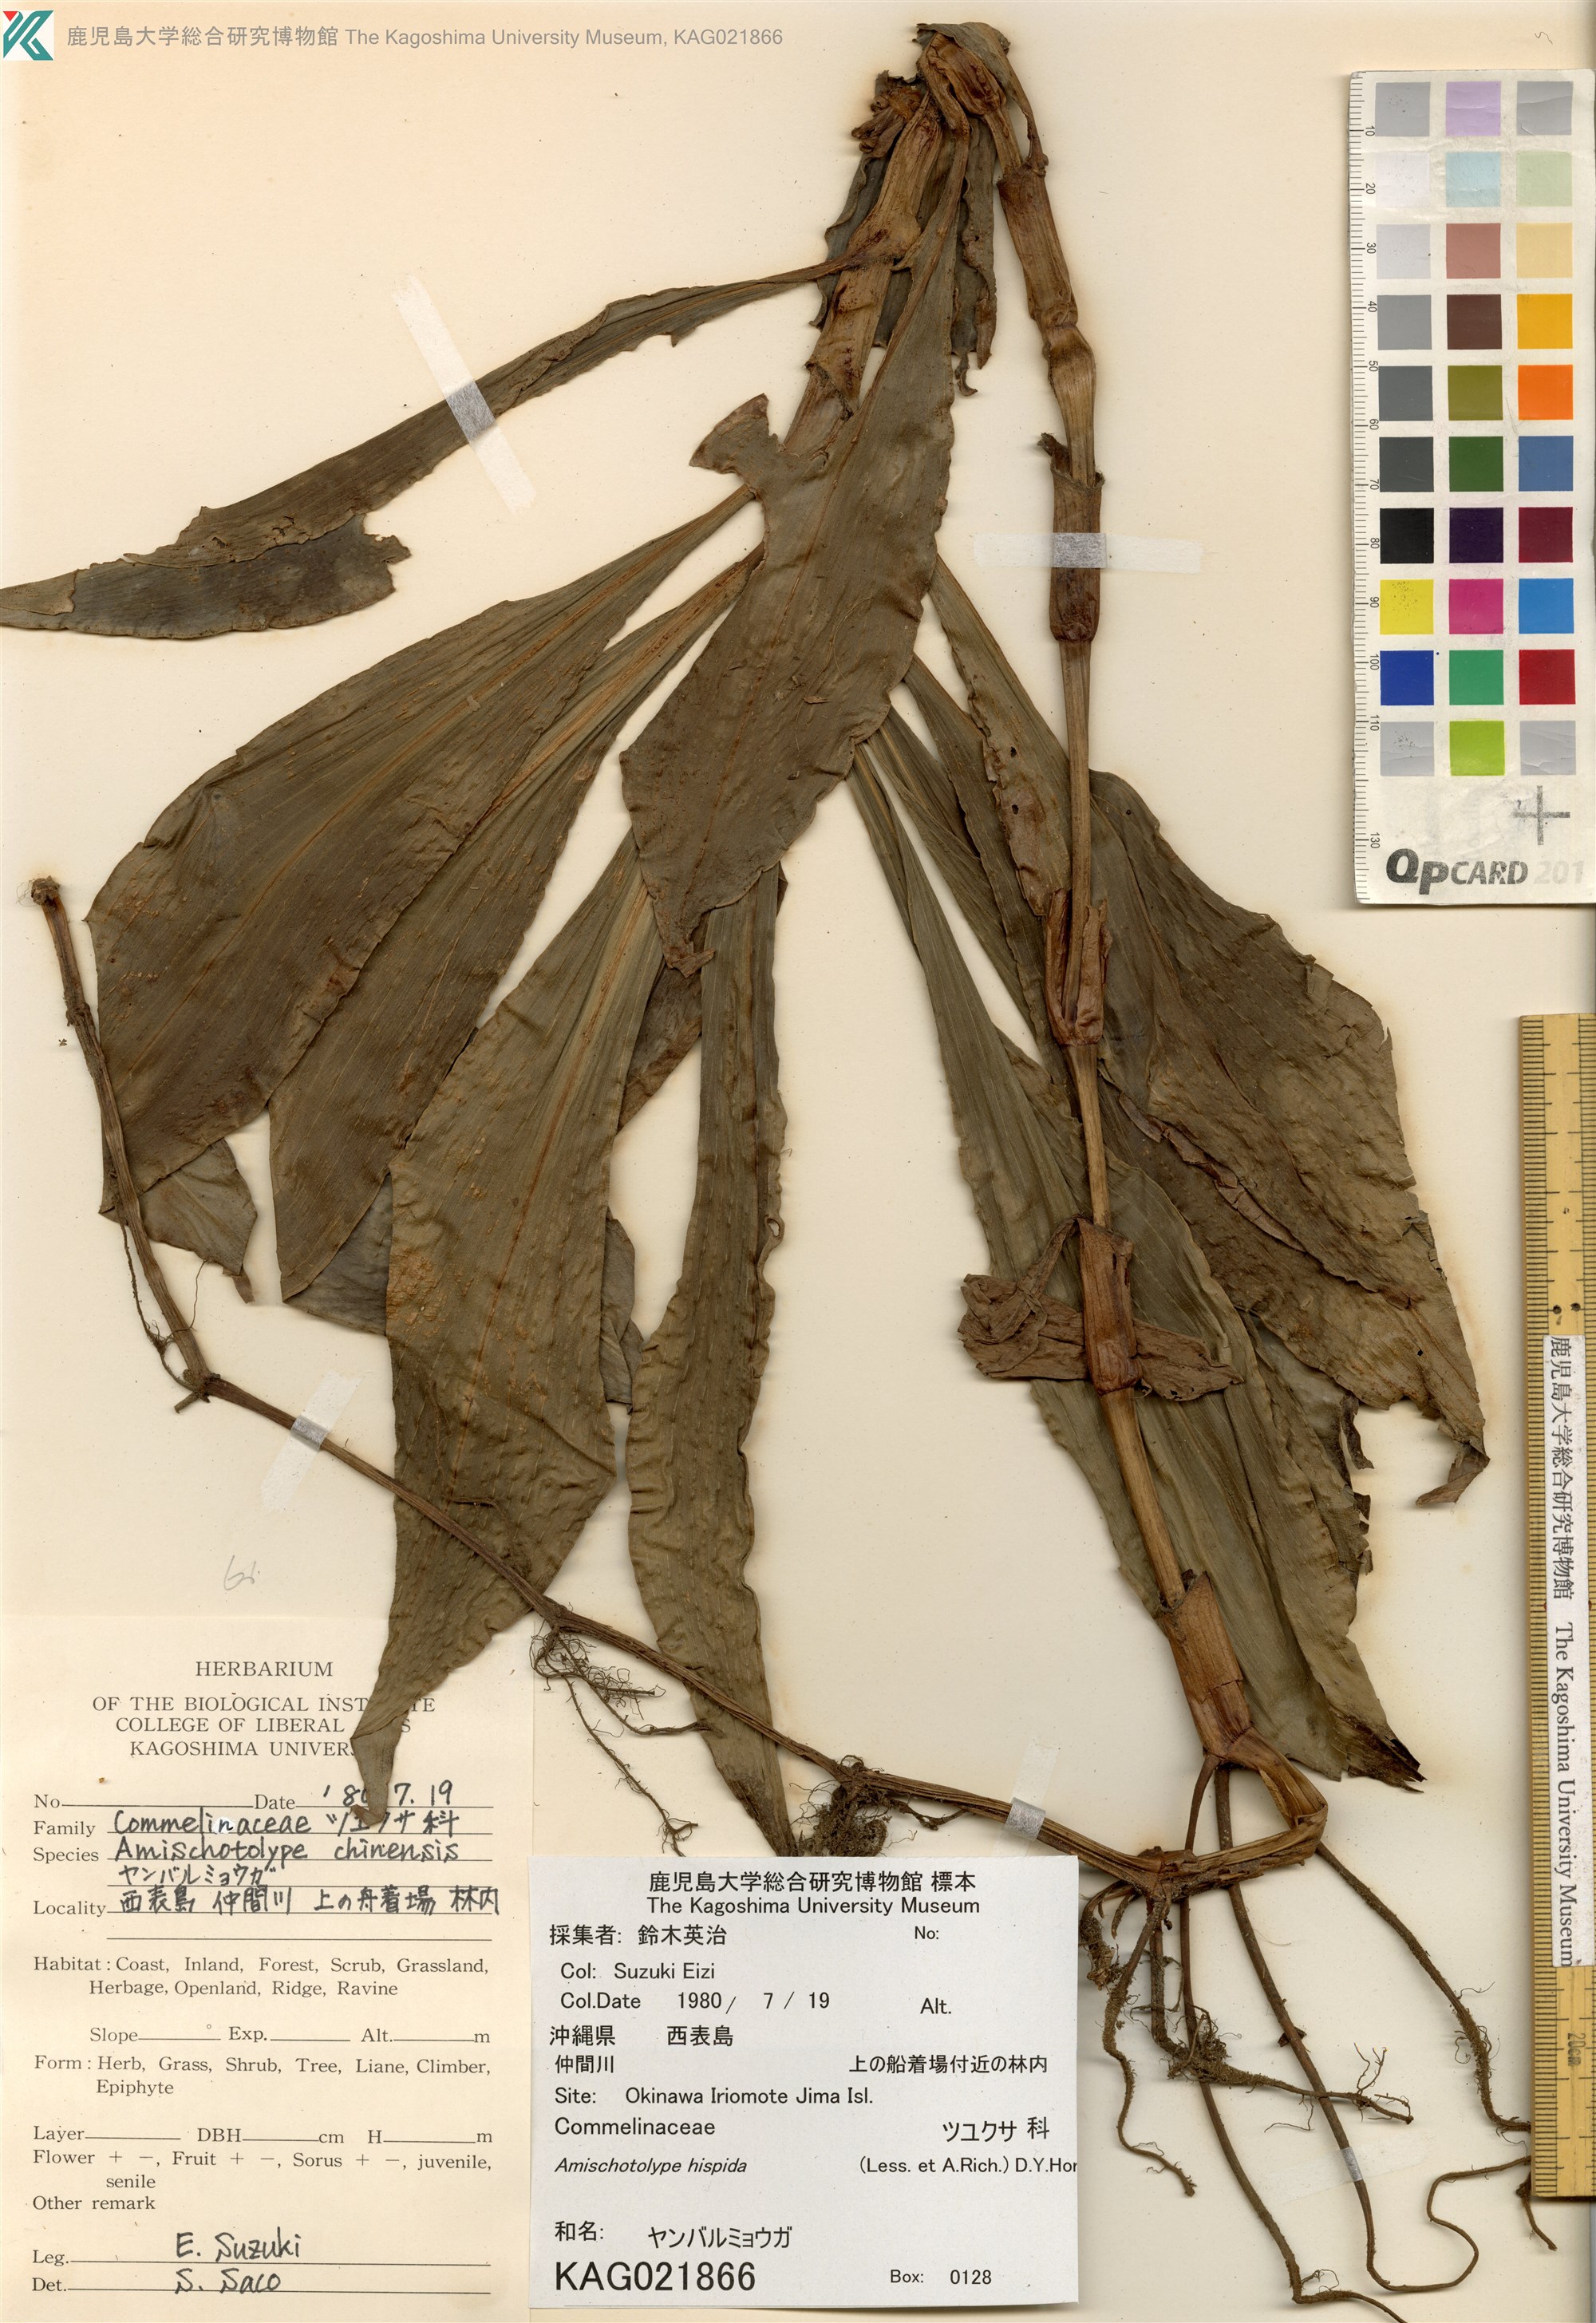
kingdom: Plantae
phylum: Tracheophyta
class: Liliopsida
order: Commelinales
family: Commelinaceae
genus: Amischotolype
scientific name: Amischotolype hispida
